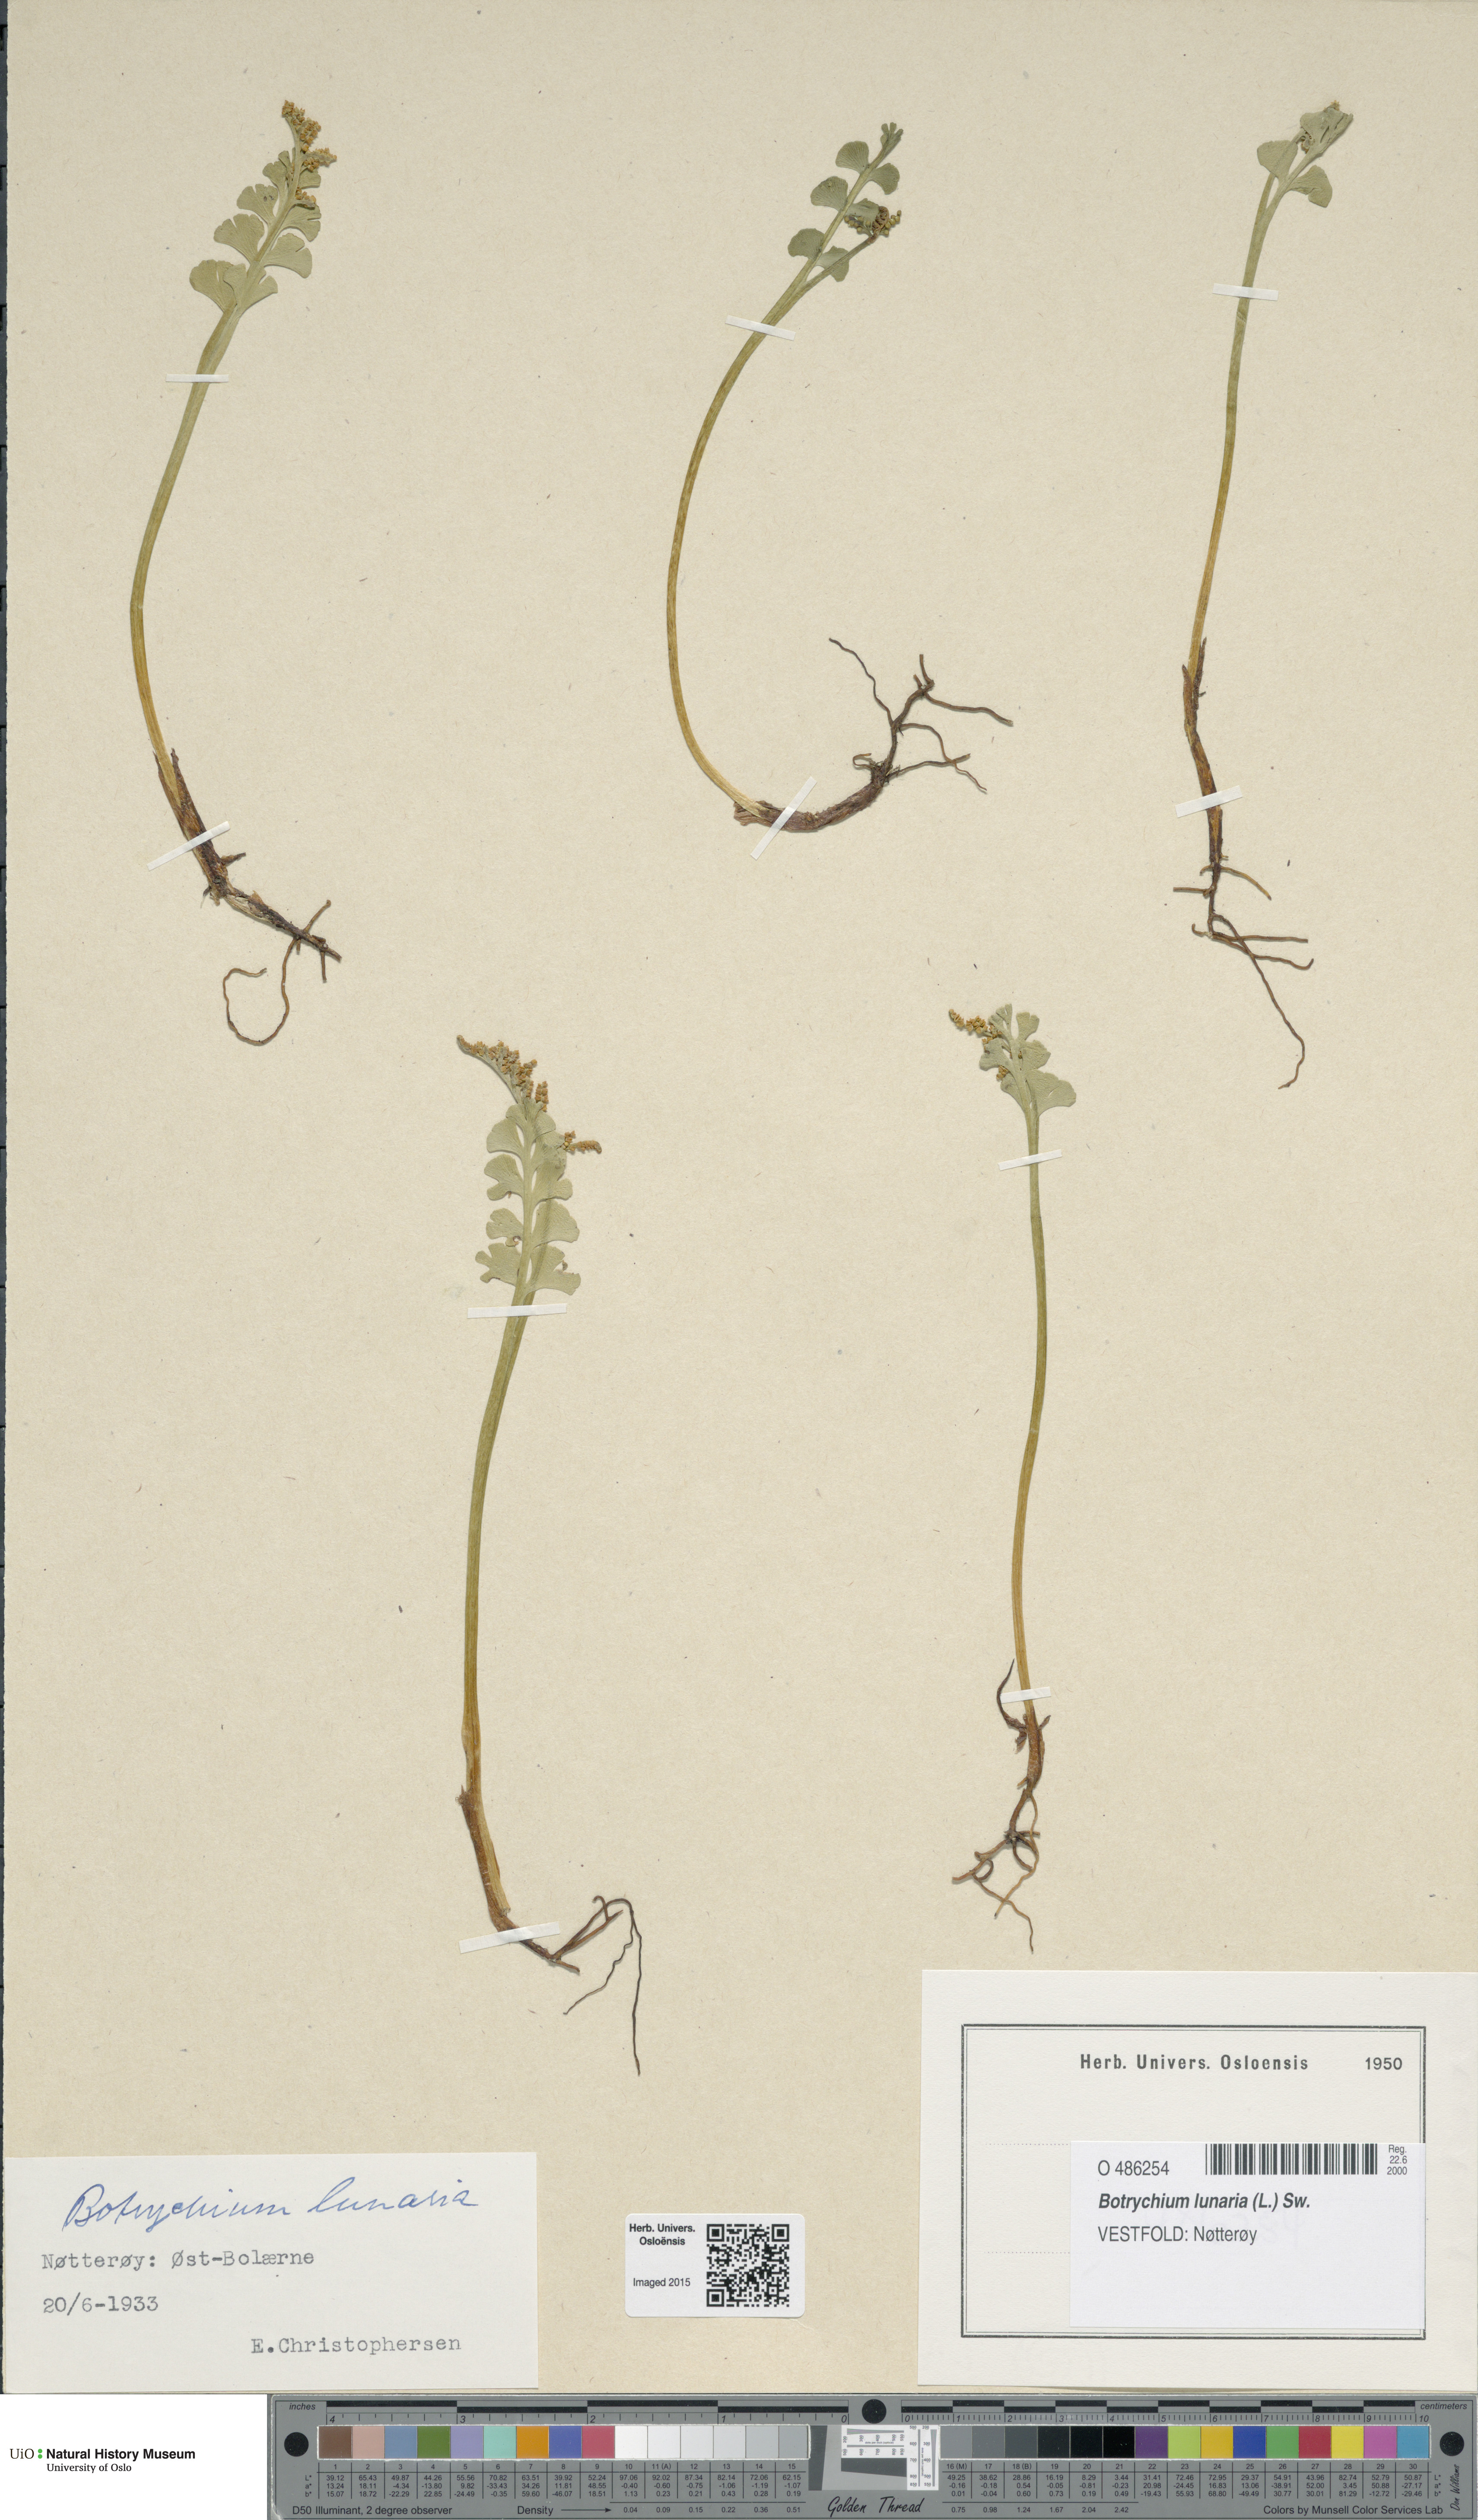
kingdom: Plantae
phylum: Tracheophyta
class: Polypodiopsida
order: Ophioglossales
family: Ophioglossaceae
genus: Botrychium
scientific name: Botrychium lunaria
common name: Moonwort
